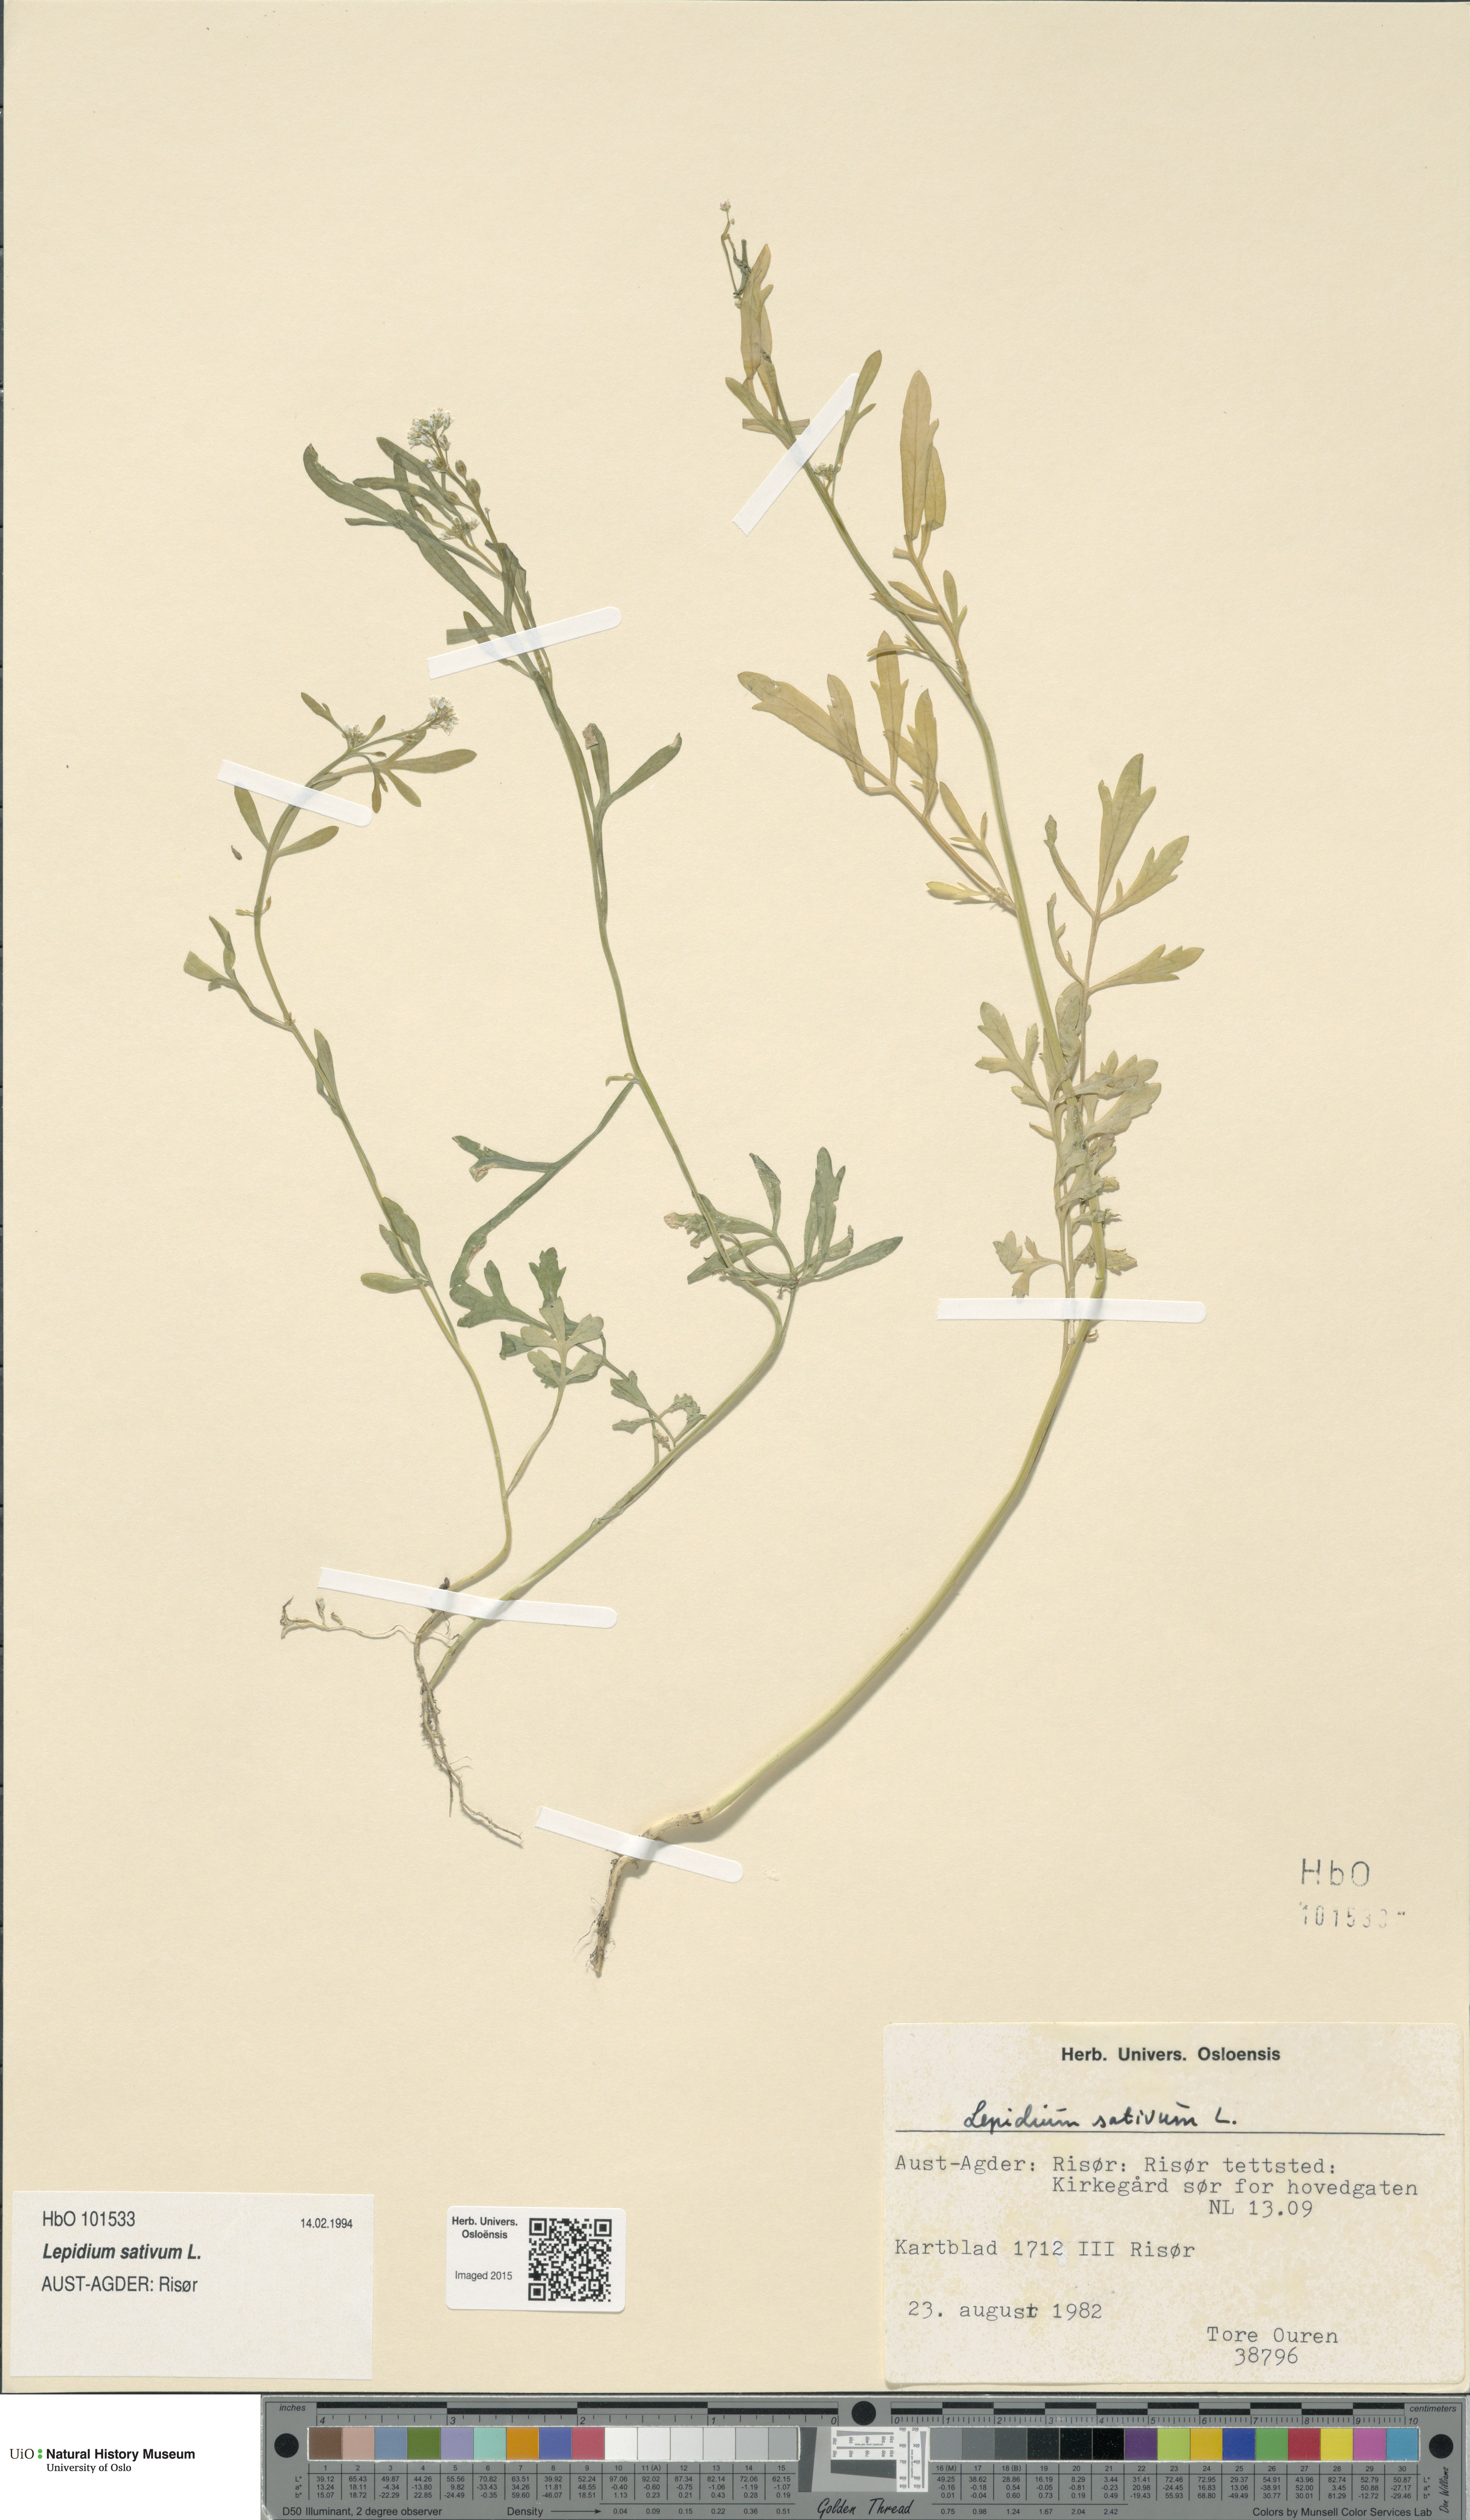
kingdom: Plantae
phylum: Tracheophyta
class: Magnoliopsida
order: Brassicales
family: Brassicaceae
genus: Lepidium
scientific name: Lepidium sativum
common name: Garden cress
